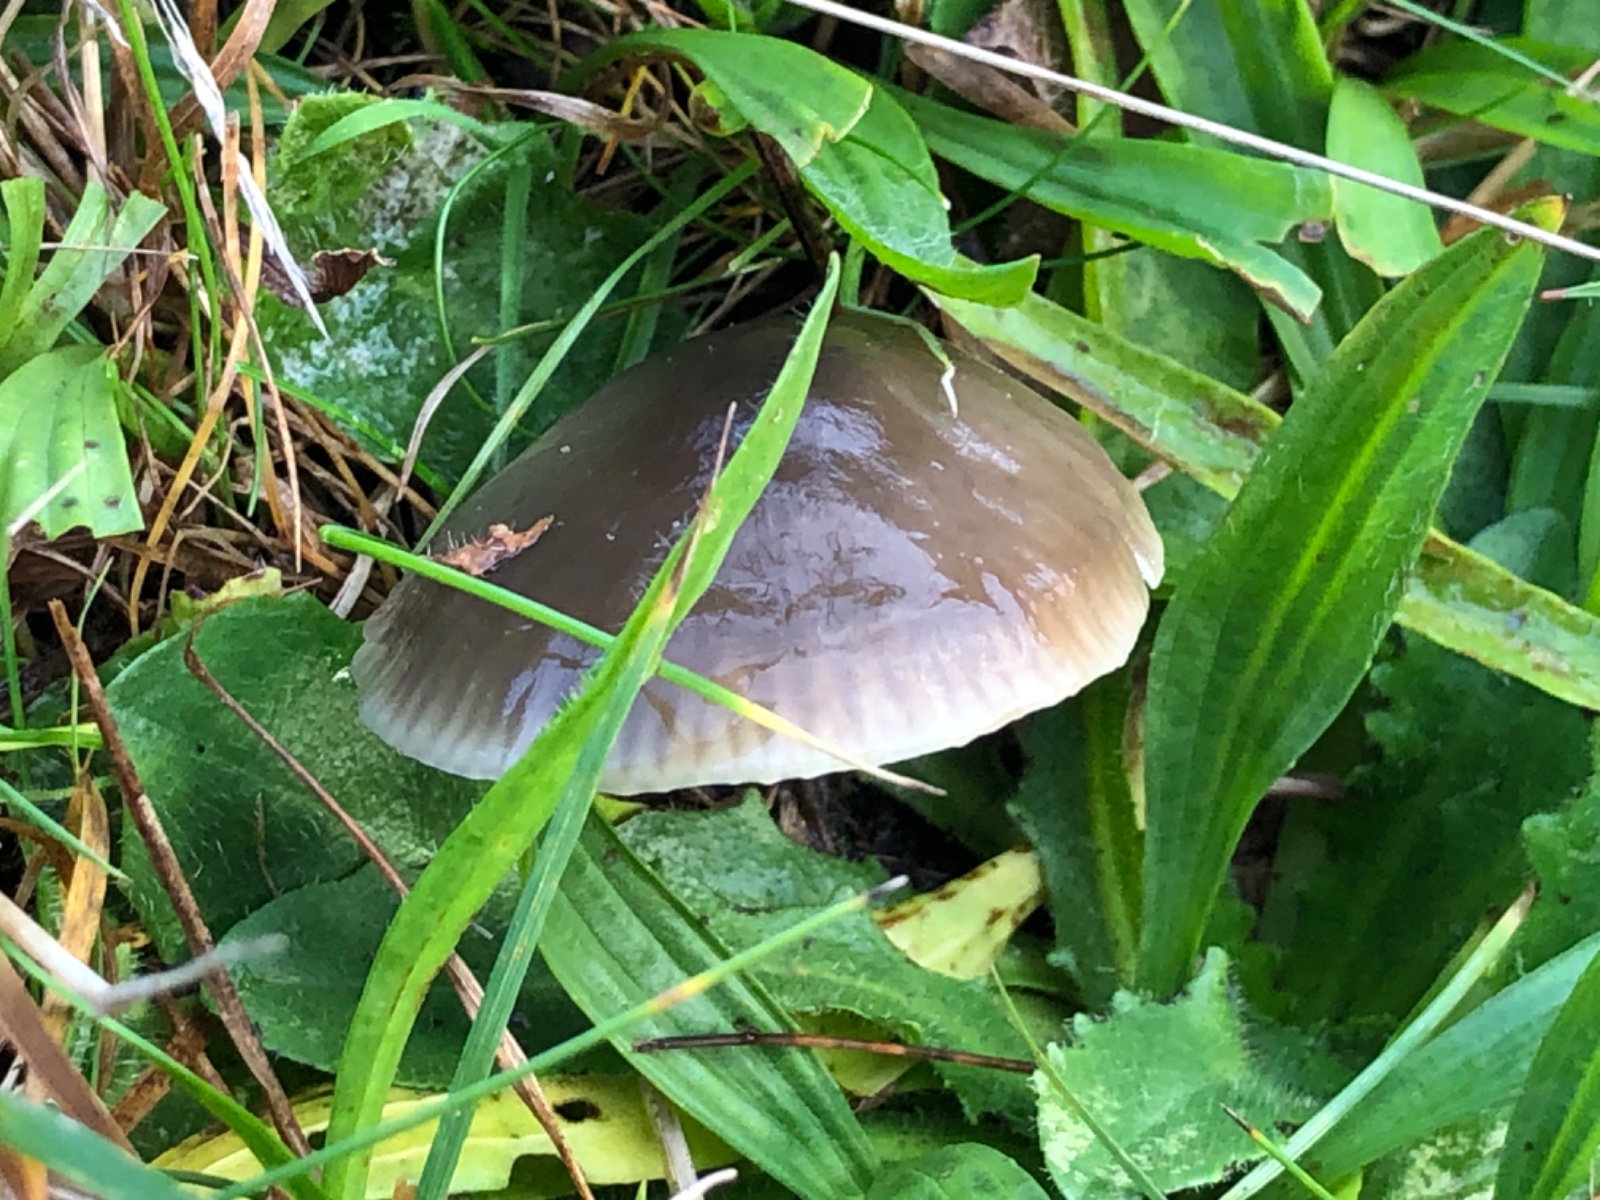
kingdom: Fungi
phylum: Basidiomycota
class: Agaricomycetes
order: Agaricales
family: Hygrophoraceae
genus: Gliophorus
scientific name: Gliophorus irrigatus
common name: slimet vokshat
